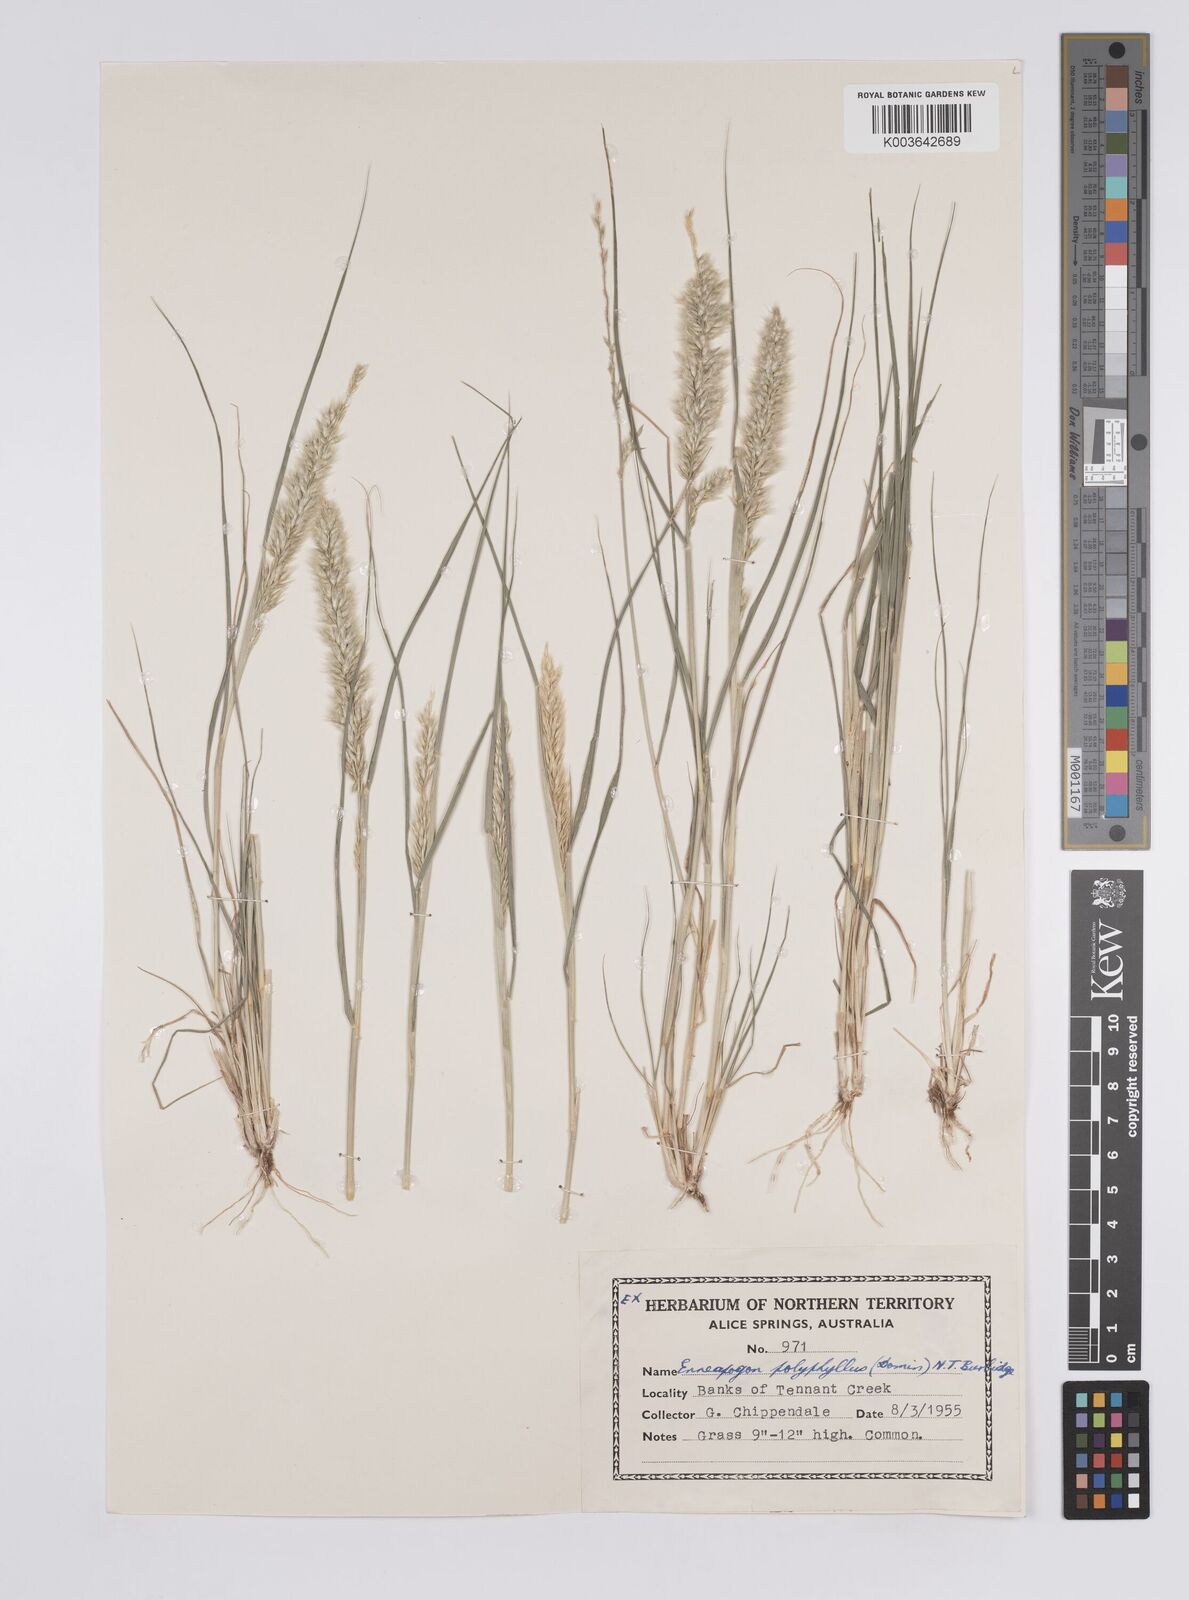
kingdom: Plantae
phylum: Tracheophyta
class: Liliopsida
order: Poales
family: Poaceae
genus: Enneapogon
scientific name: Enneapogon polyphyllus
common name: Leafy nineawn
